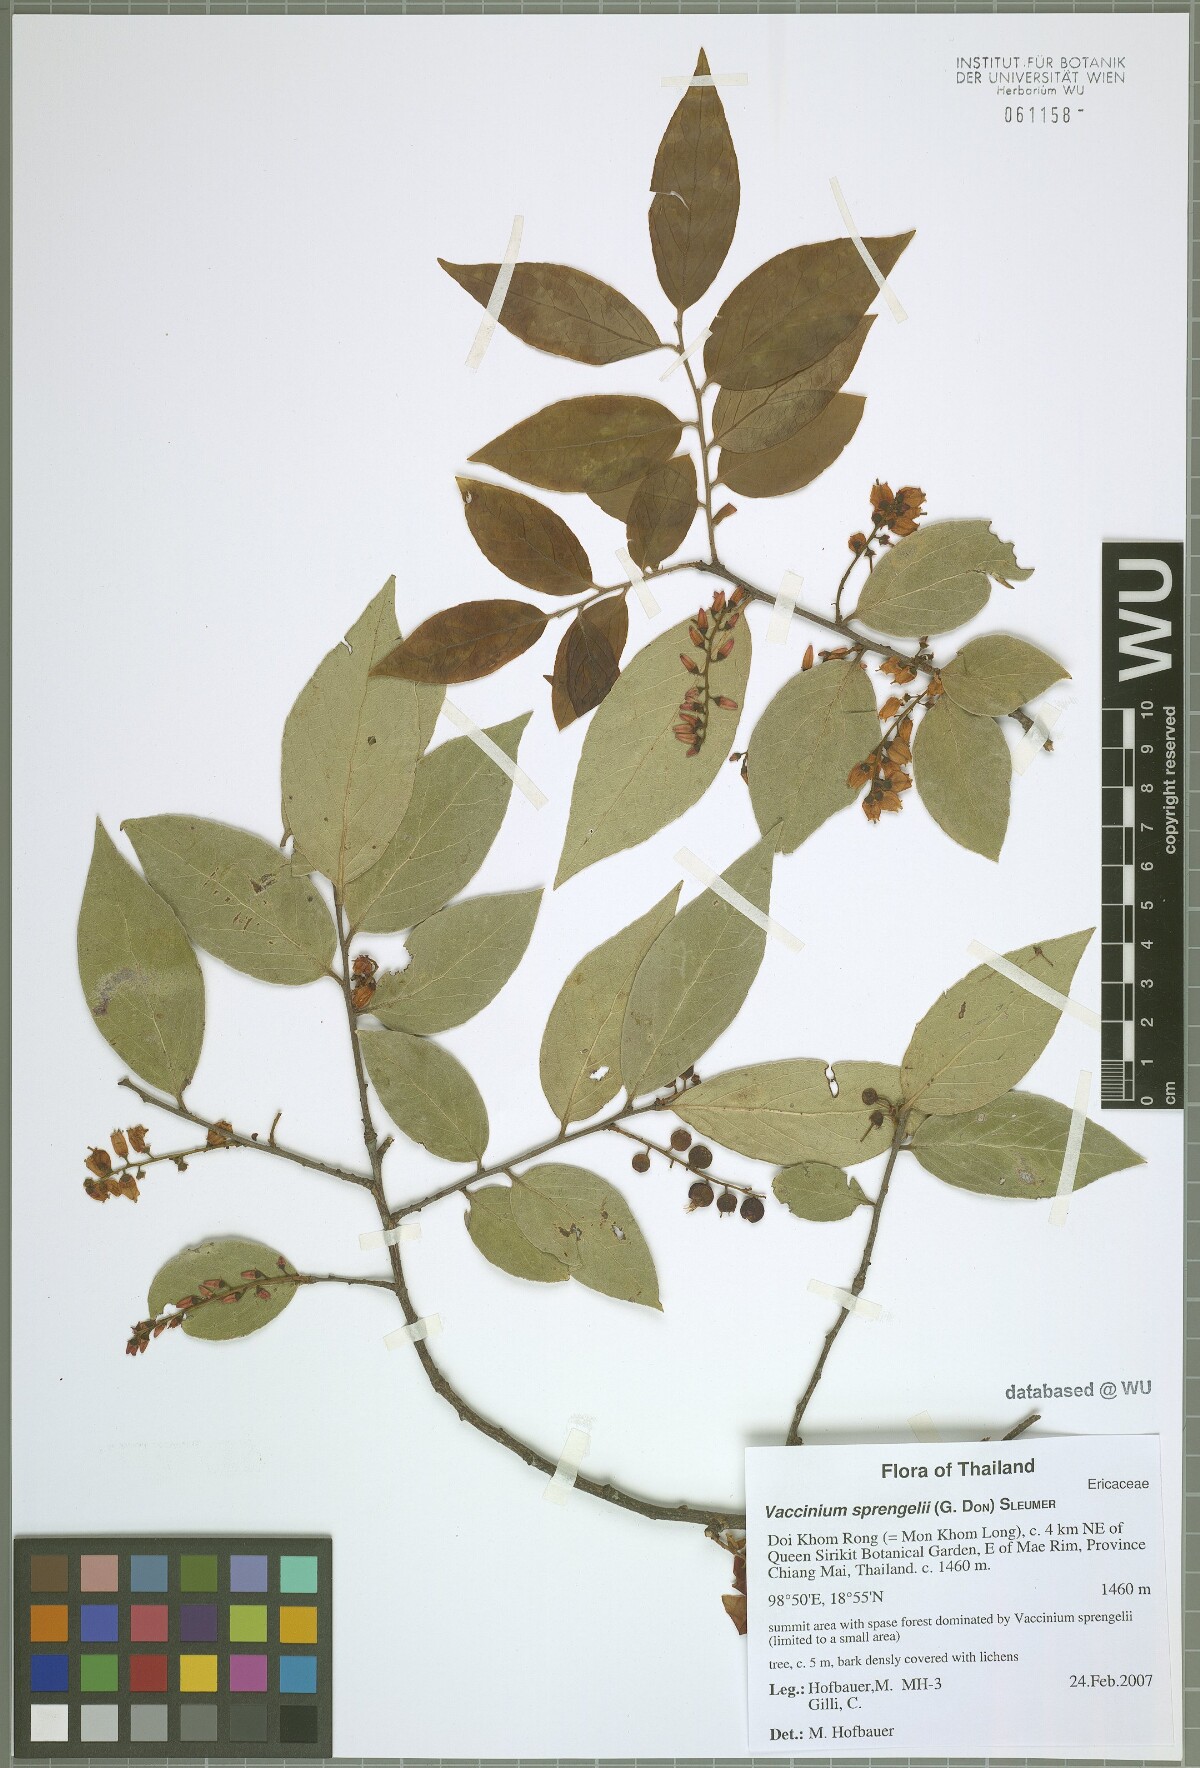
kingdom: Plantae
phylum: Tracheophyta
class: Magnoliopsida
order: Ericales
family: Ericaceae
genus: Vaccinium
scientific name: Vaccinium sprengelii
